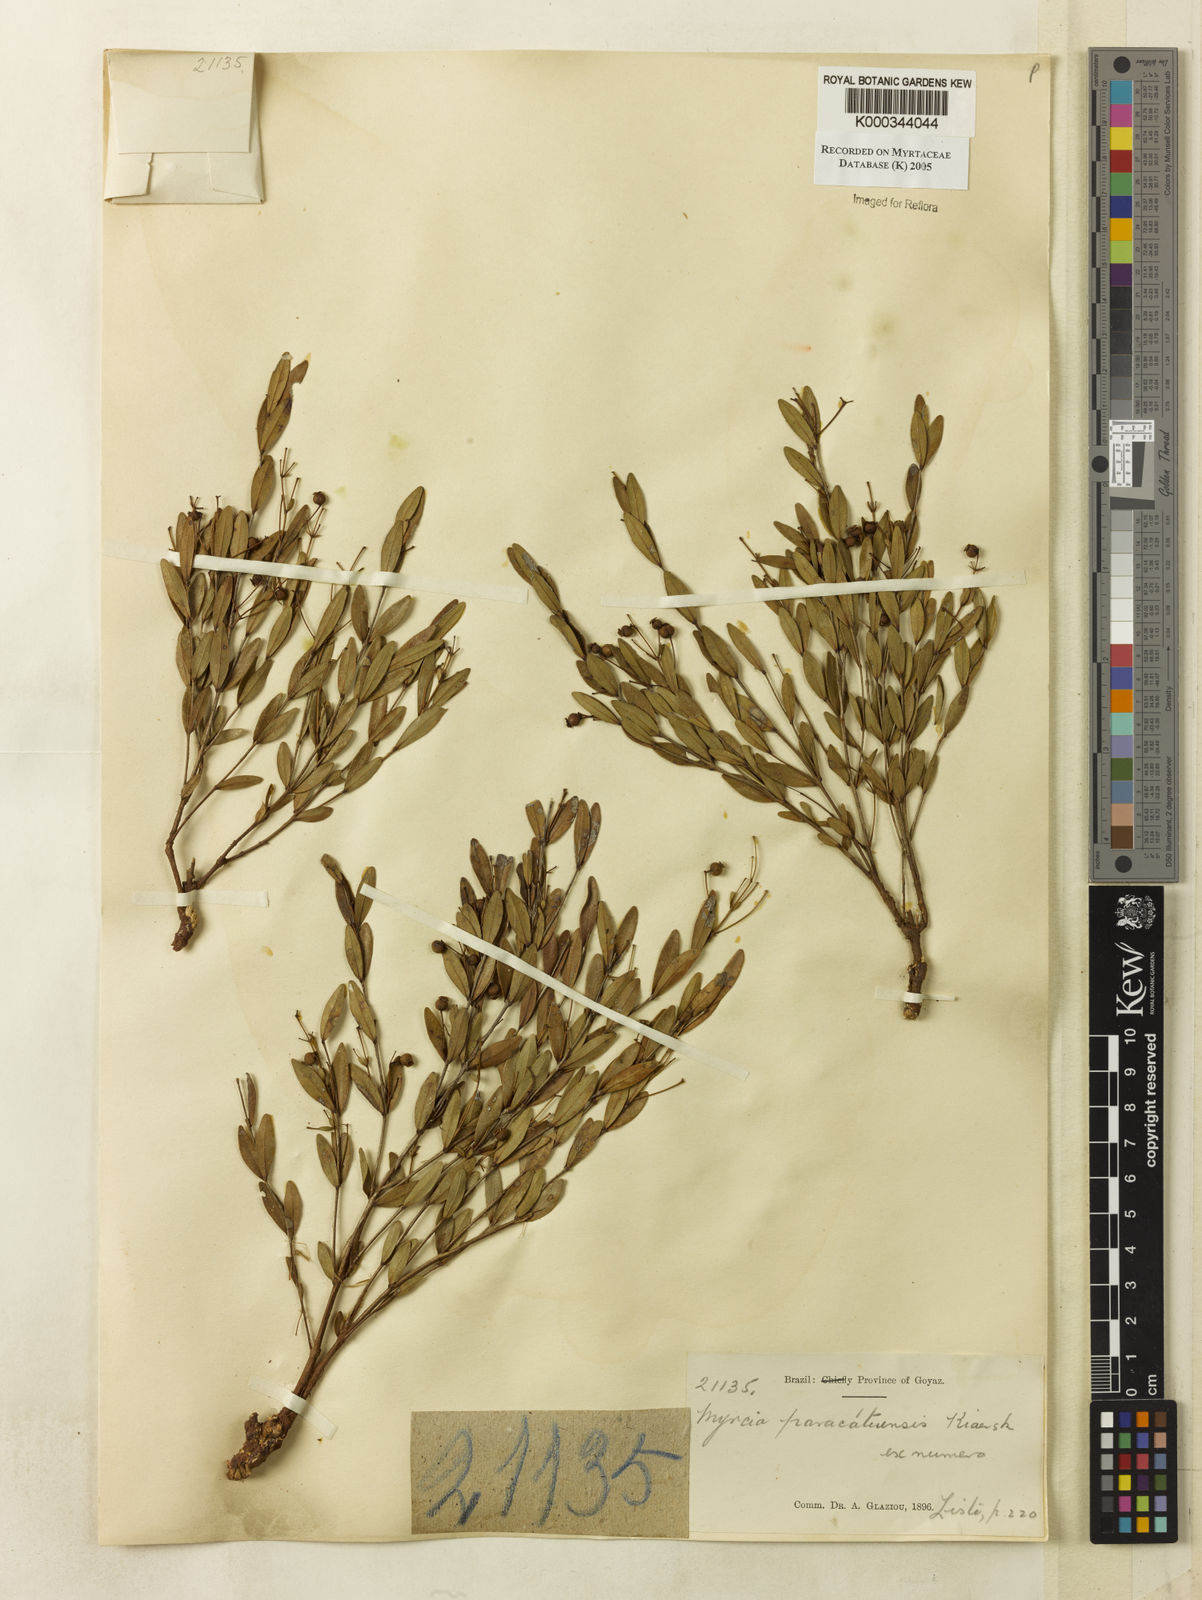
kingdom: Plantae
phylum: Tracheophyta
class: Magnoliopsida
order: Myrtales
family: Myrtaceae
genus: Myrcia
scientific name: Myrcia paracatuensis
